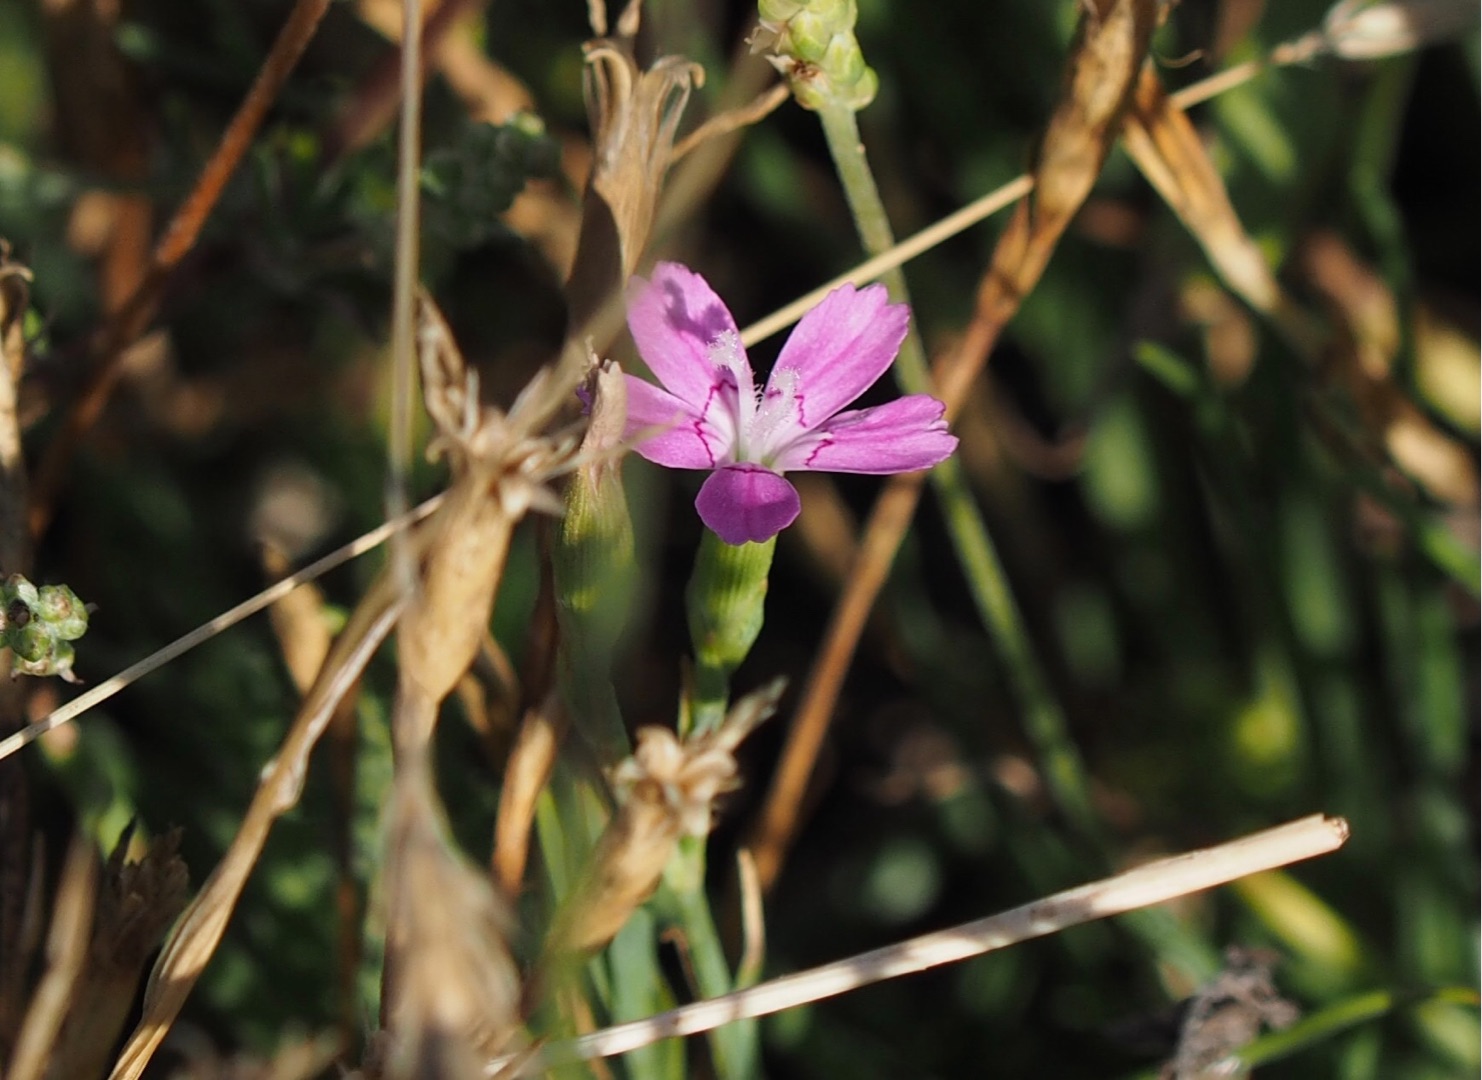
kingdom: Plantae
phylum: Tracheophyta
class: Magnoliopsida
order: Caryophyllales
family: Caryophyllaceae
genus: Dianthus
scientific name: Dianthus deltoides
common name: Bakke-nellike
